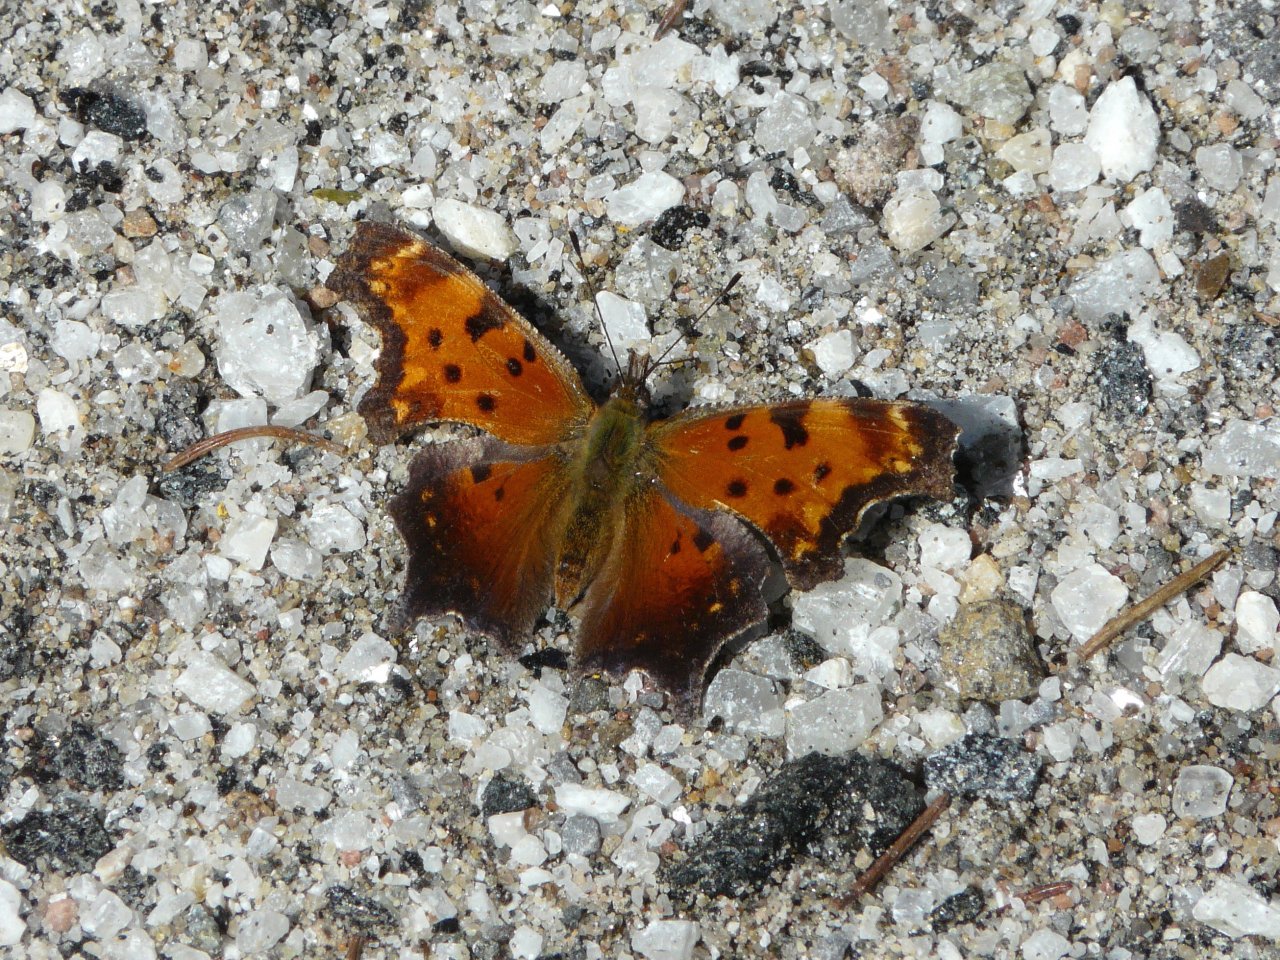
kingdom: Animalia
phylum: Arthropoda
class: Insecta
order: Lepidoptera
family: Nymphalidae
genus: Polygonia
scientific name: Polygonia progne
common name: Gray Comma
